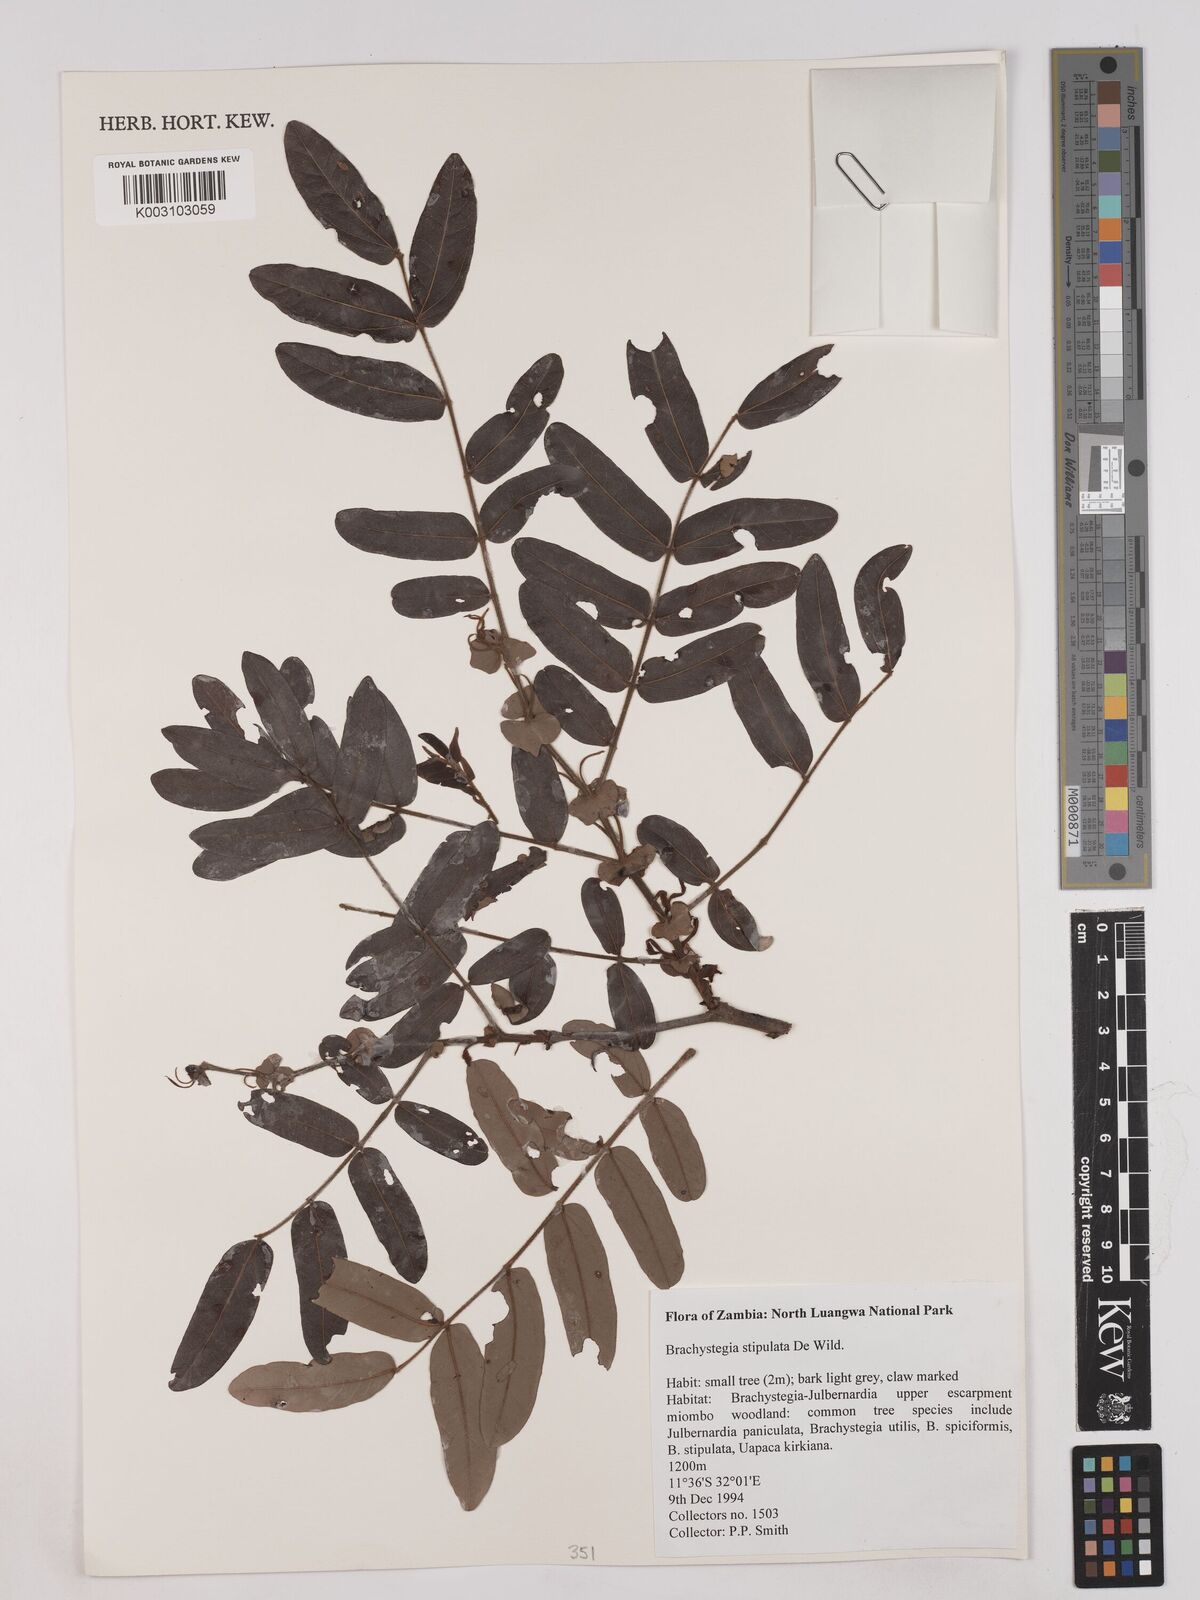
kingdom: Plantae
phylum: Tracheophyta
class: Magnoliopsida
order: Fabales
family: Fabaceae
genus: Brachystegia
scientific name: Brachystegia stipulata
